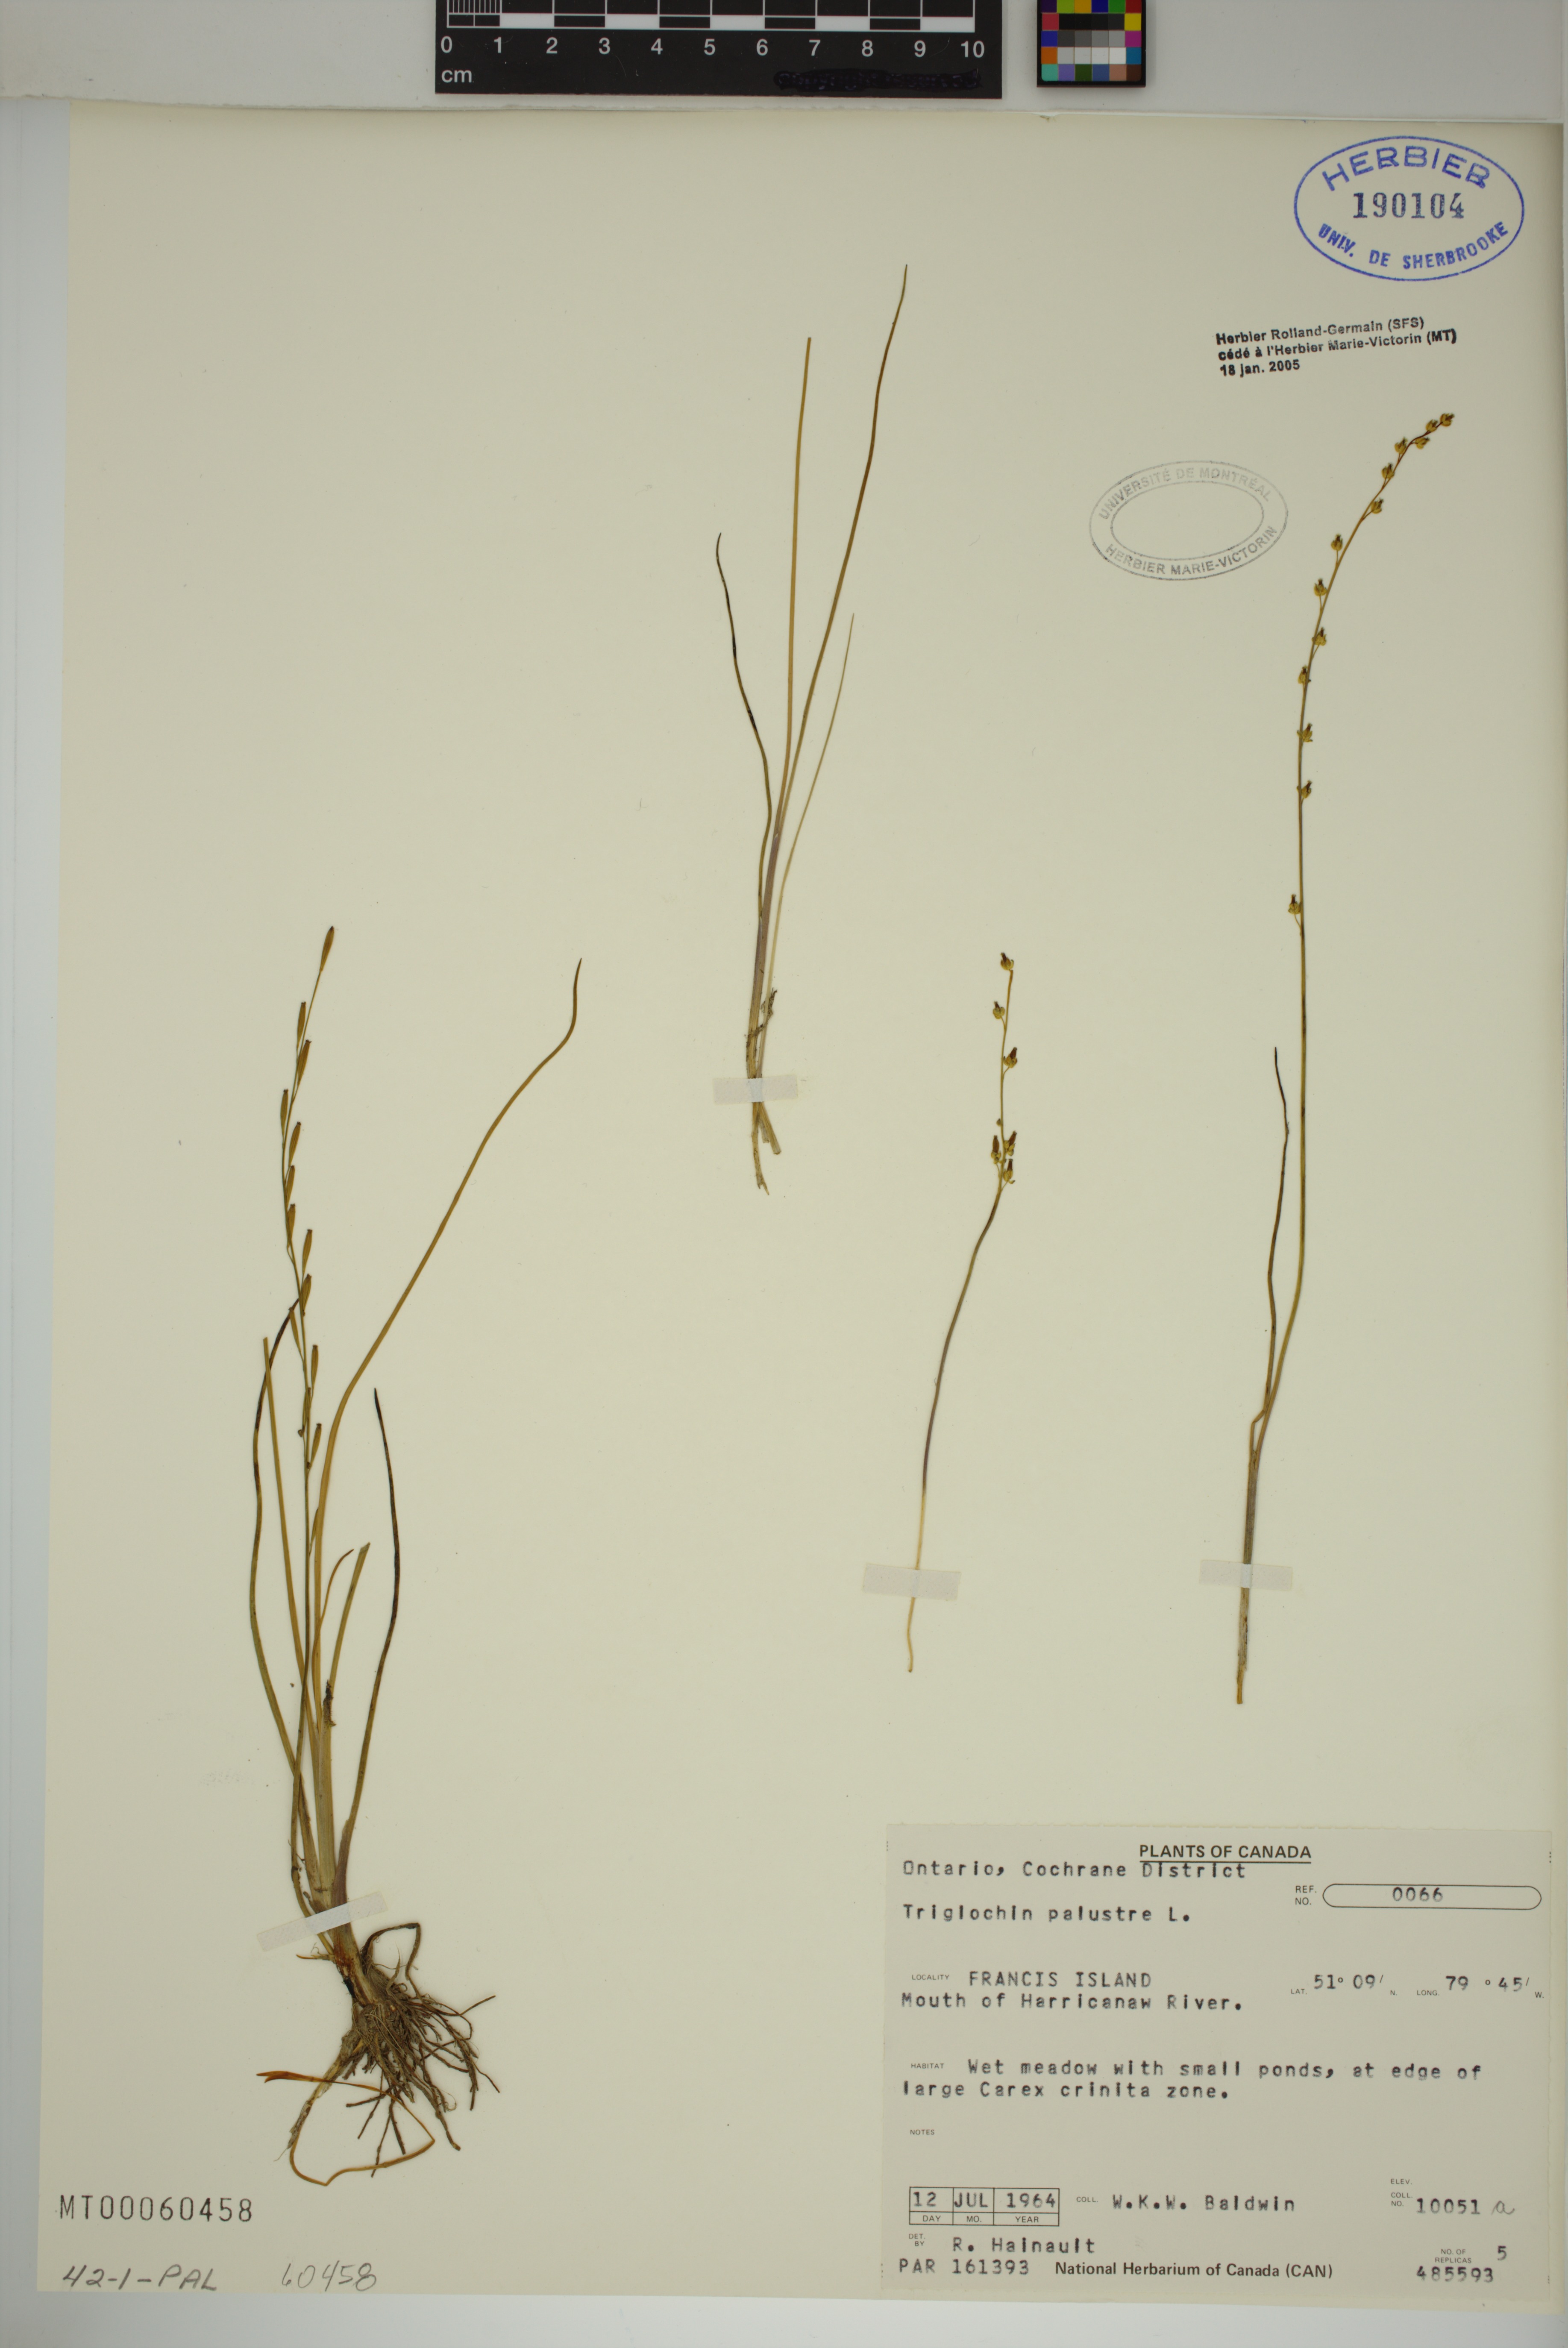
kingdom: Plantae
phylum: Tracheophyta
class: Liliopsida
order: Alismatales
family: Juncaginaceae
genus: Triglochin
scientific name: Triglochin palustris
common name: Marsh arrowgrass
